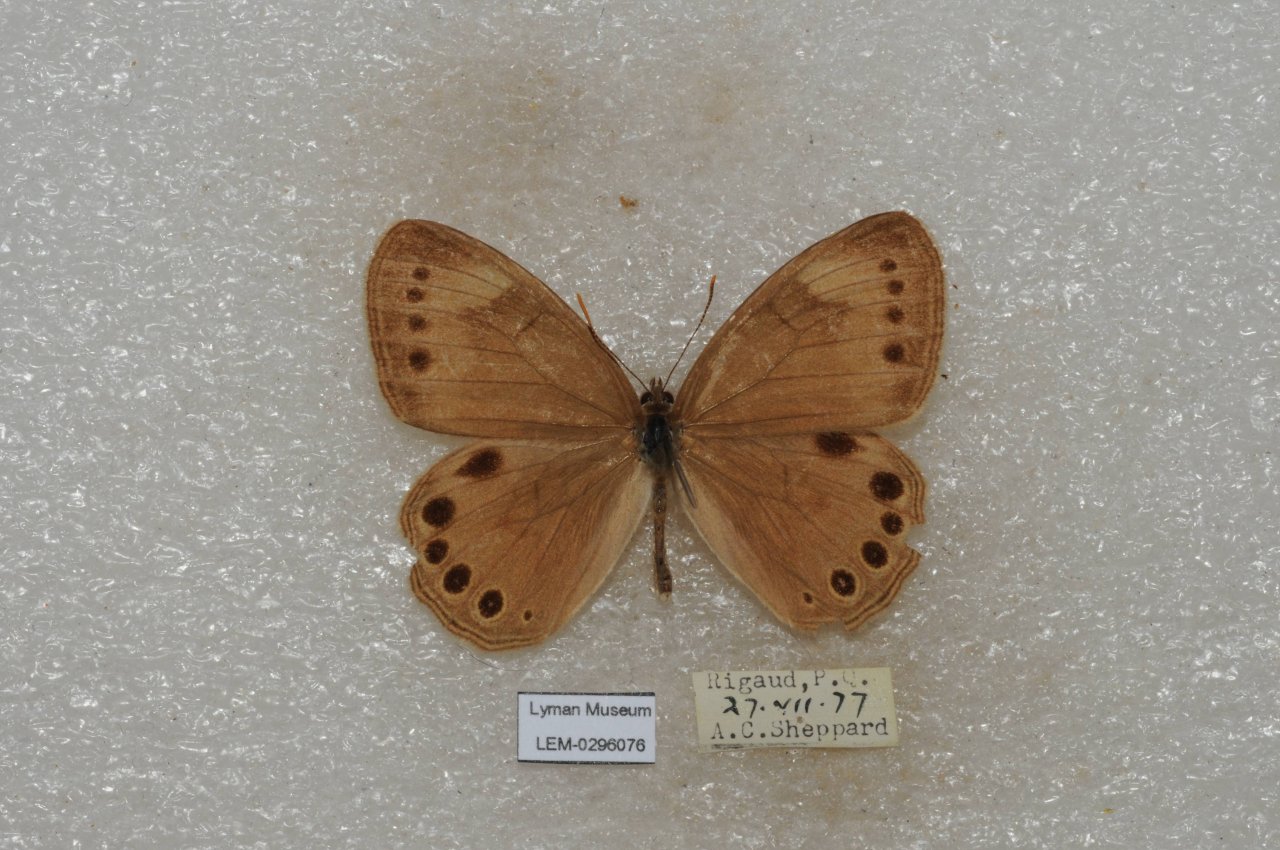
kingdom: Animalia
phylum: Arthropoda
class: Insecta
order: Lepidoptera
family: Nymphalidae
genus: Lethe
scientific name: Lethe eurydice
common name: Eyed Brown
